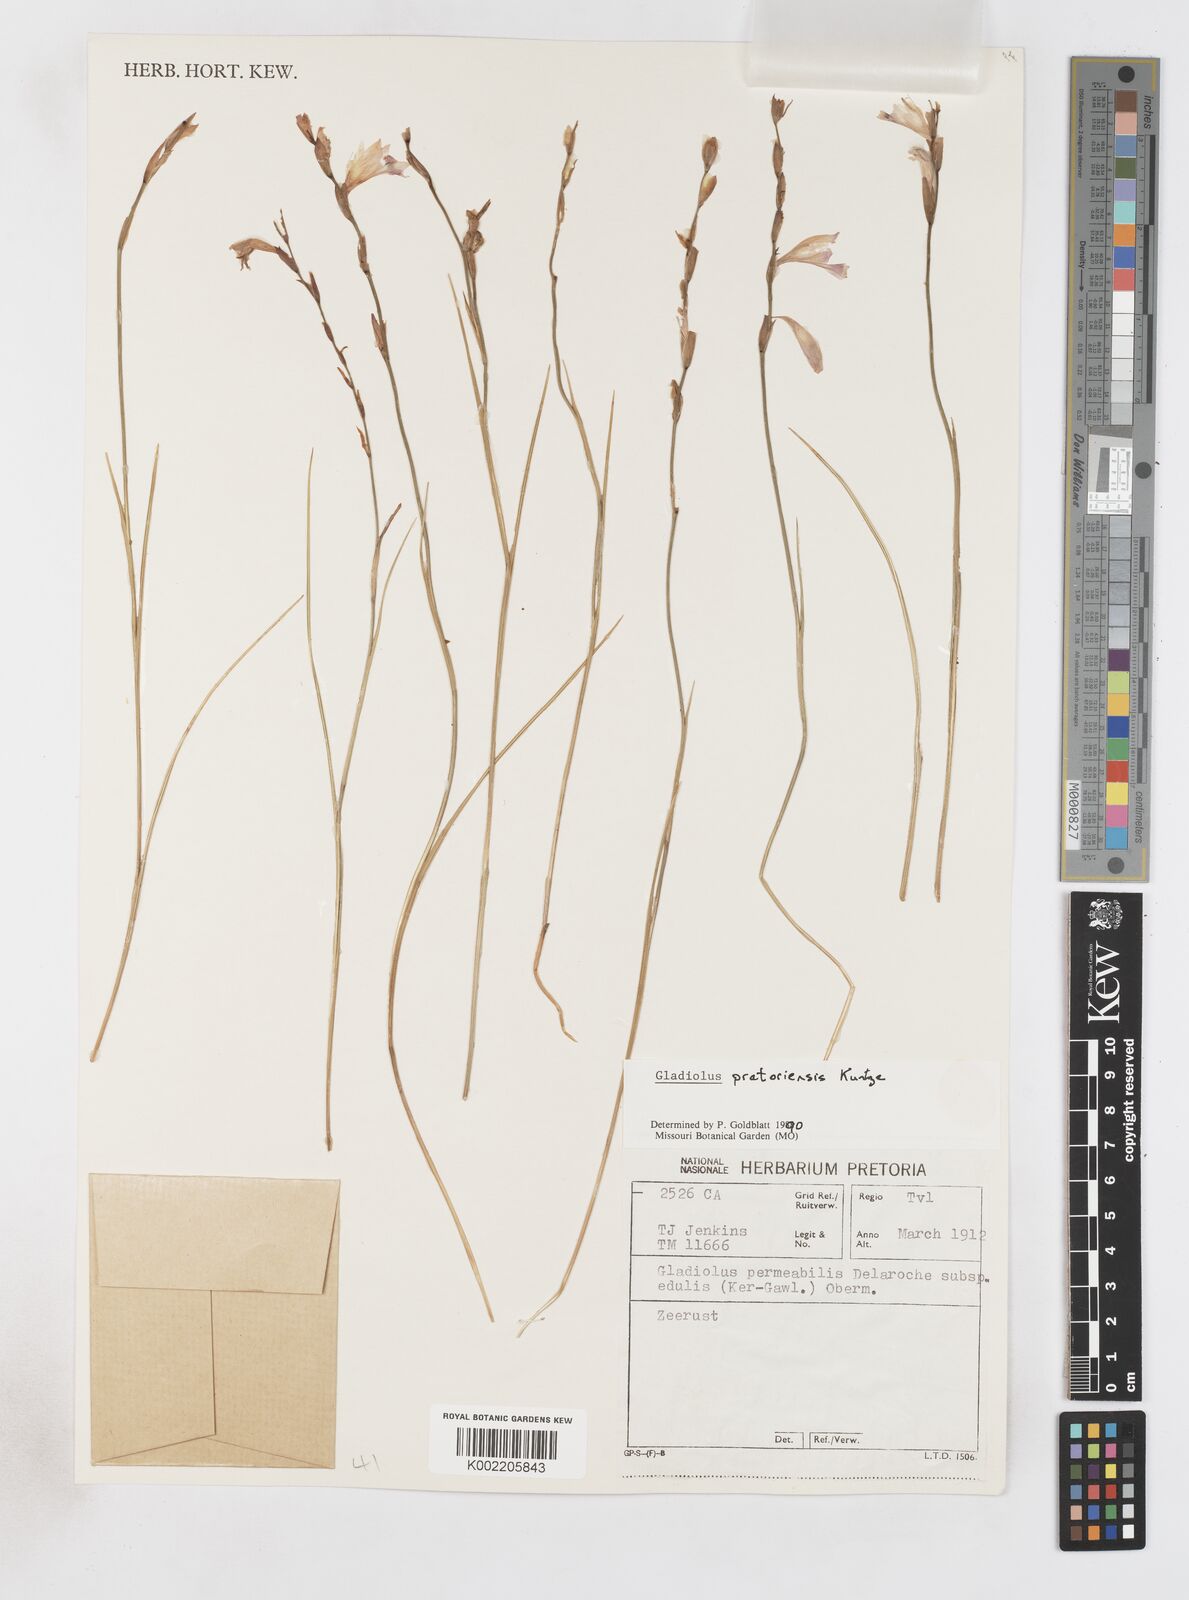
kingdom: Plantae
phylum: Tracheophyta
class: Liliopsida
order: Asparagales
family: Iridaceae
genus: Gladiolus
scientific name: Gladiolus pretoriensis
